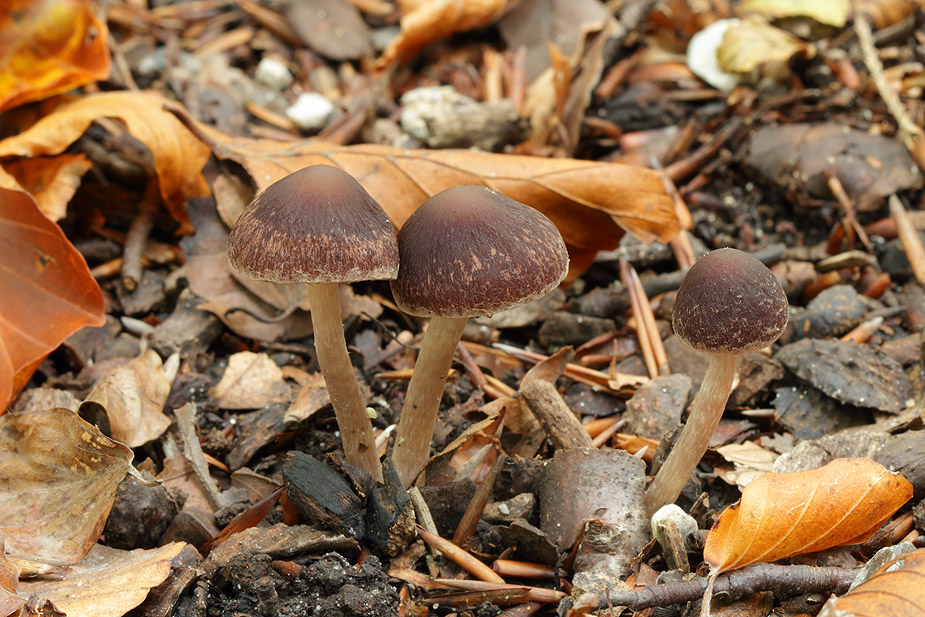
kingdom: Fungi
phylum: Basidiomycota
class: Agaricomycetes
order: Agaricales
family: Psathyrellaceae
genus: Psathyrella
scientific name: Psathyrella bipellis
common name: vinrød mørkhat
